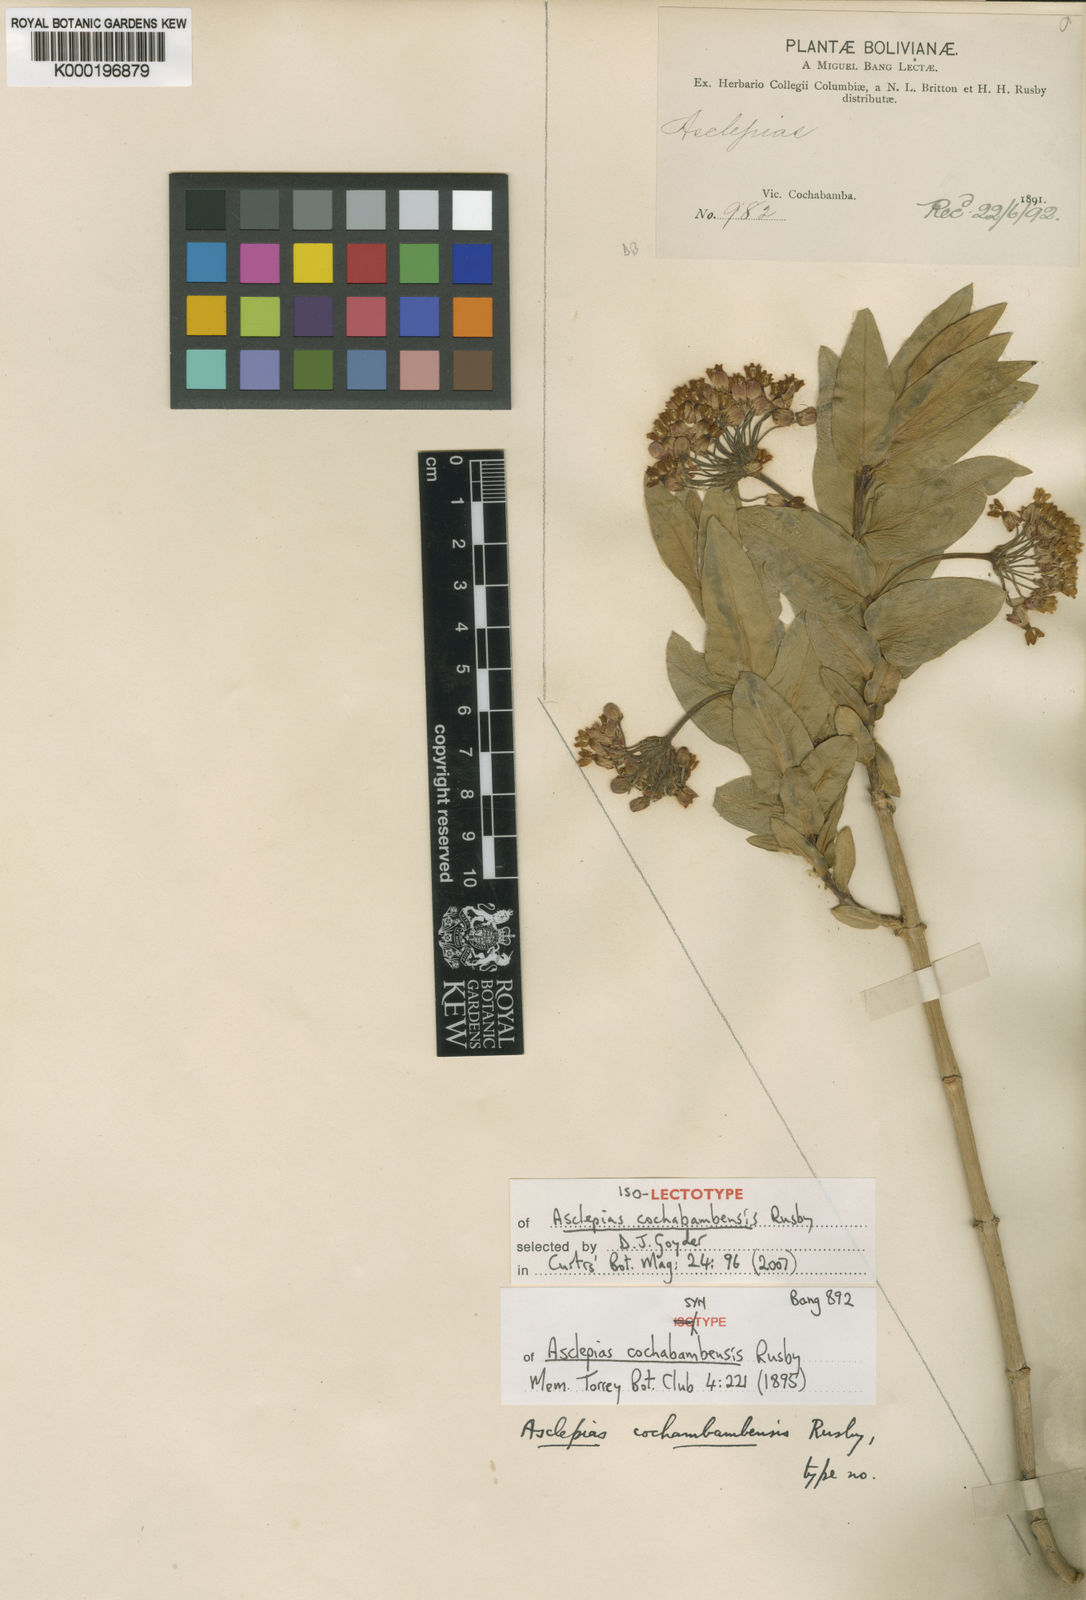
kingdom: Plantae
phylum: Tracheophyta
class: Magnoliopsida
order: Gentianales
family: Apocynaceae
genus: Asclepias
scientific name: Asclepias barjoniifolia
